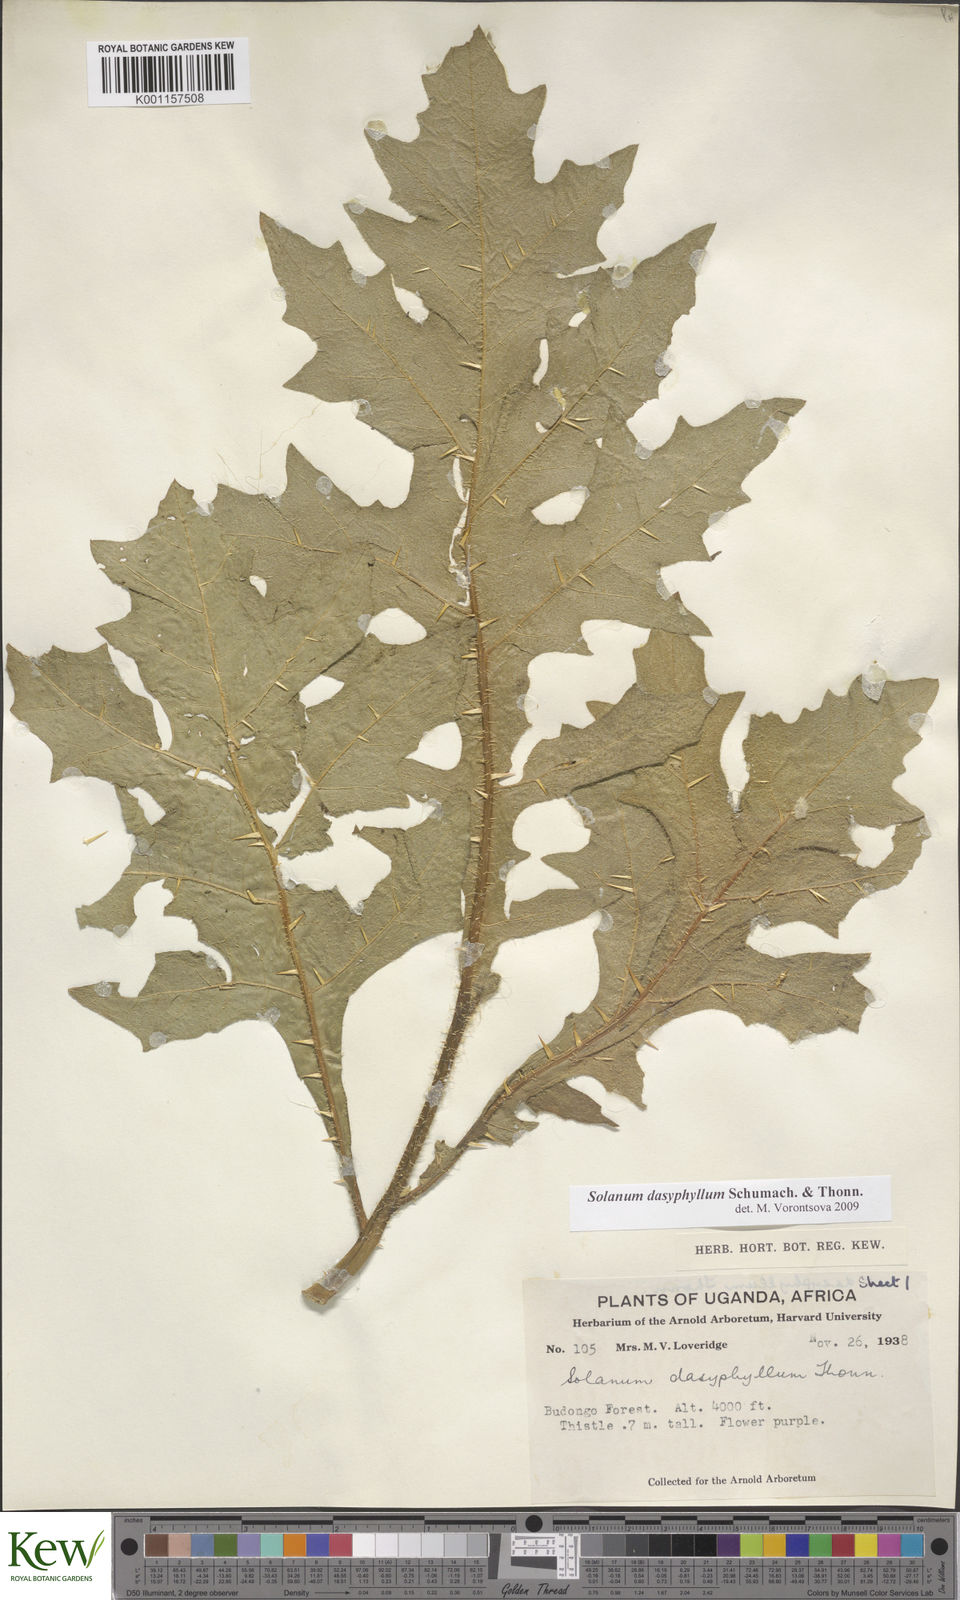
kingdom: Plantae
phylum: Tracheophyta
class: Magnoliopsida
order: Solanales
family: Solanaceae
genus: Solanum
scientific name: Solanum dasyphyllum
